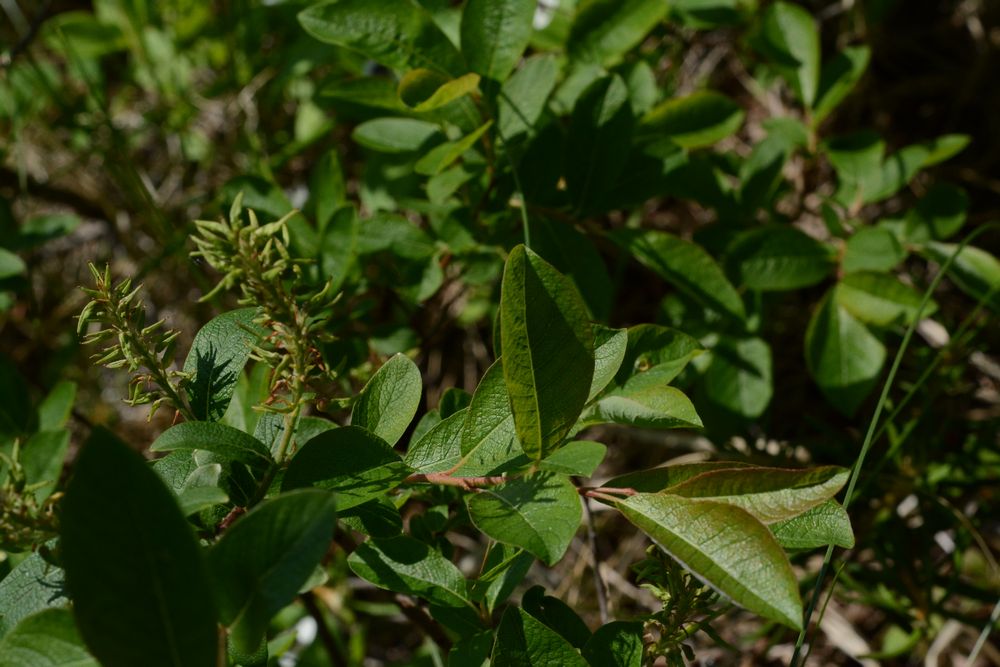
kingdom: Plantae
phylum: Tracheophyta
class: Magnoliopsida
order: Malpighiales
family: Salicaceae
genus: Salix
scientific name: Salix starkeana
